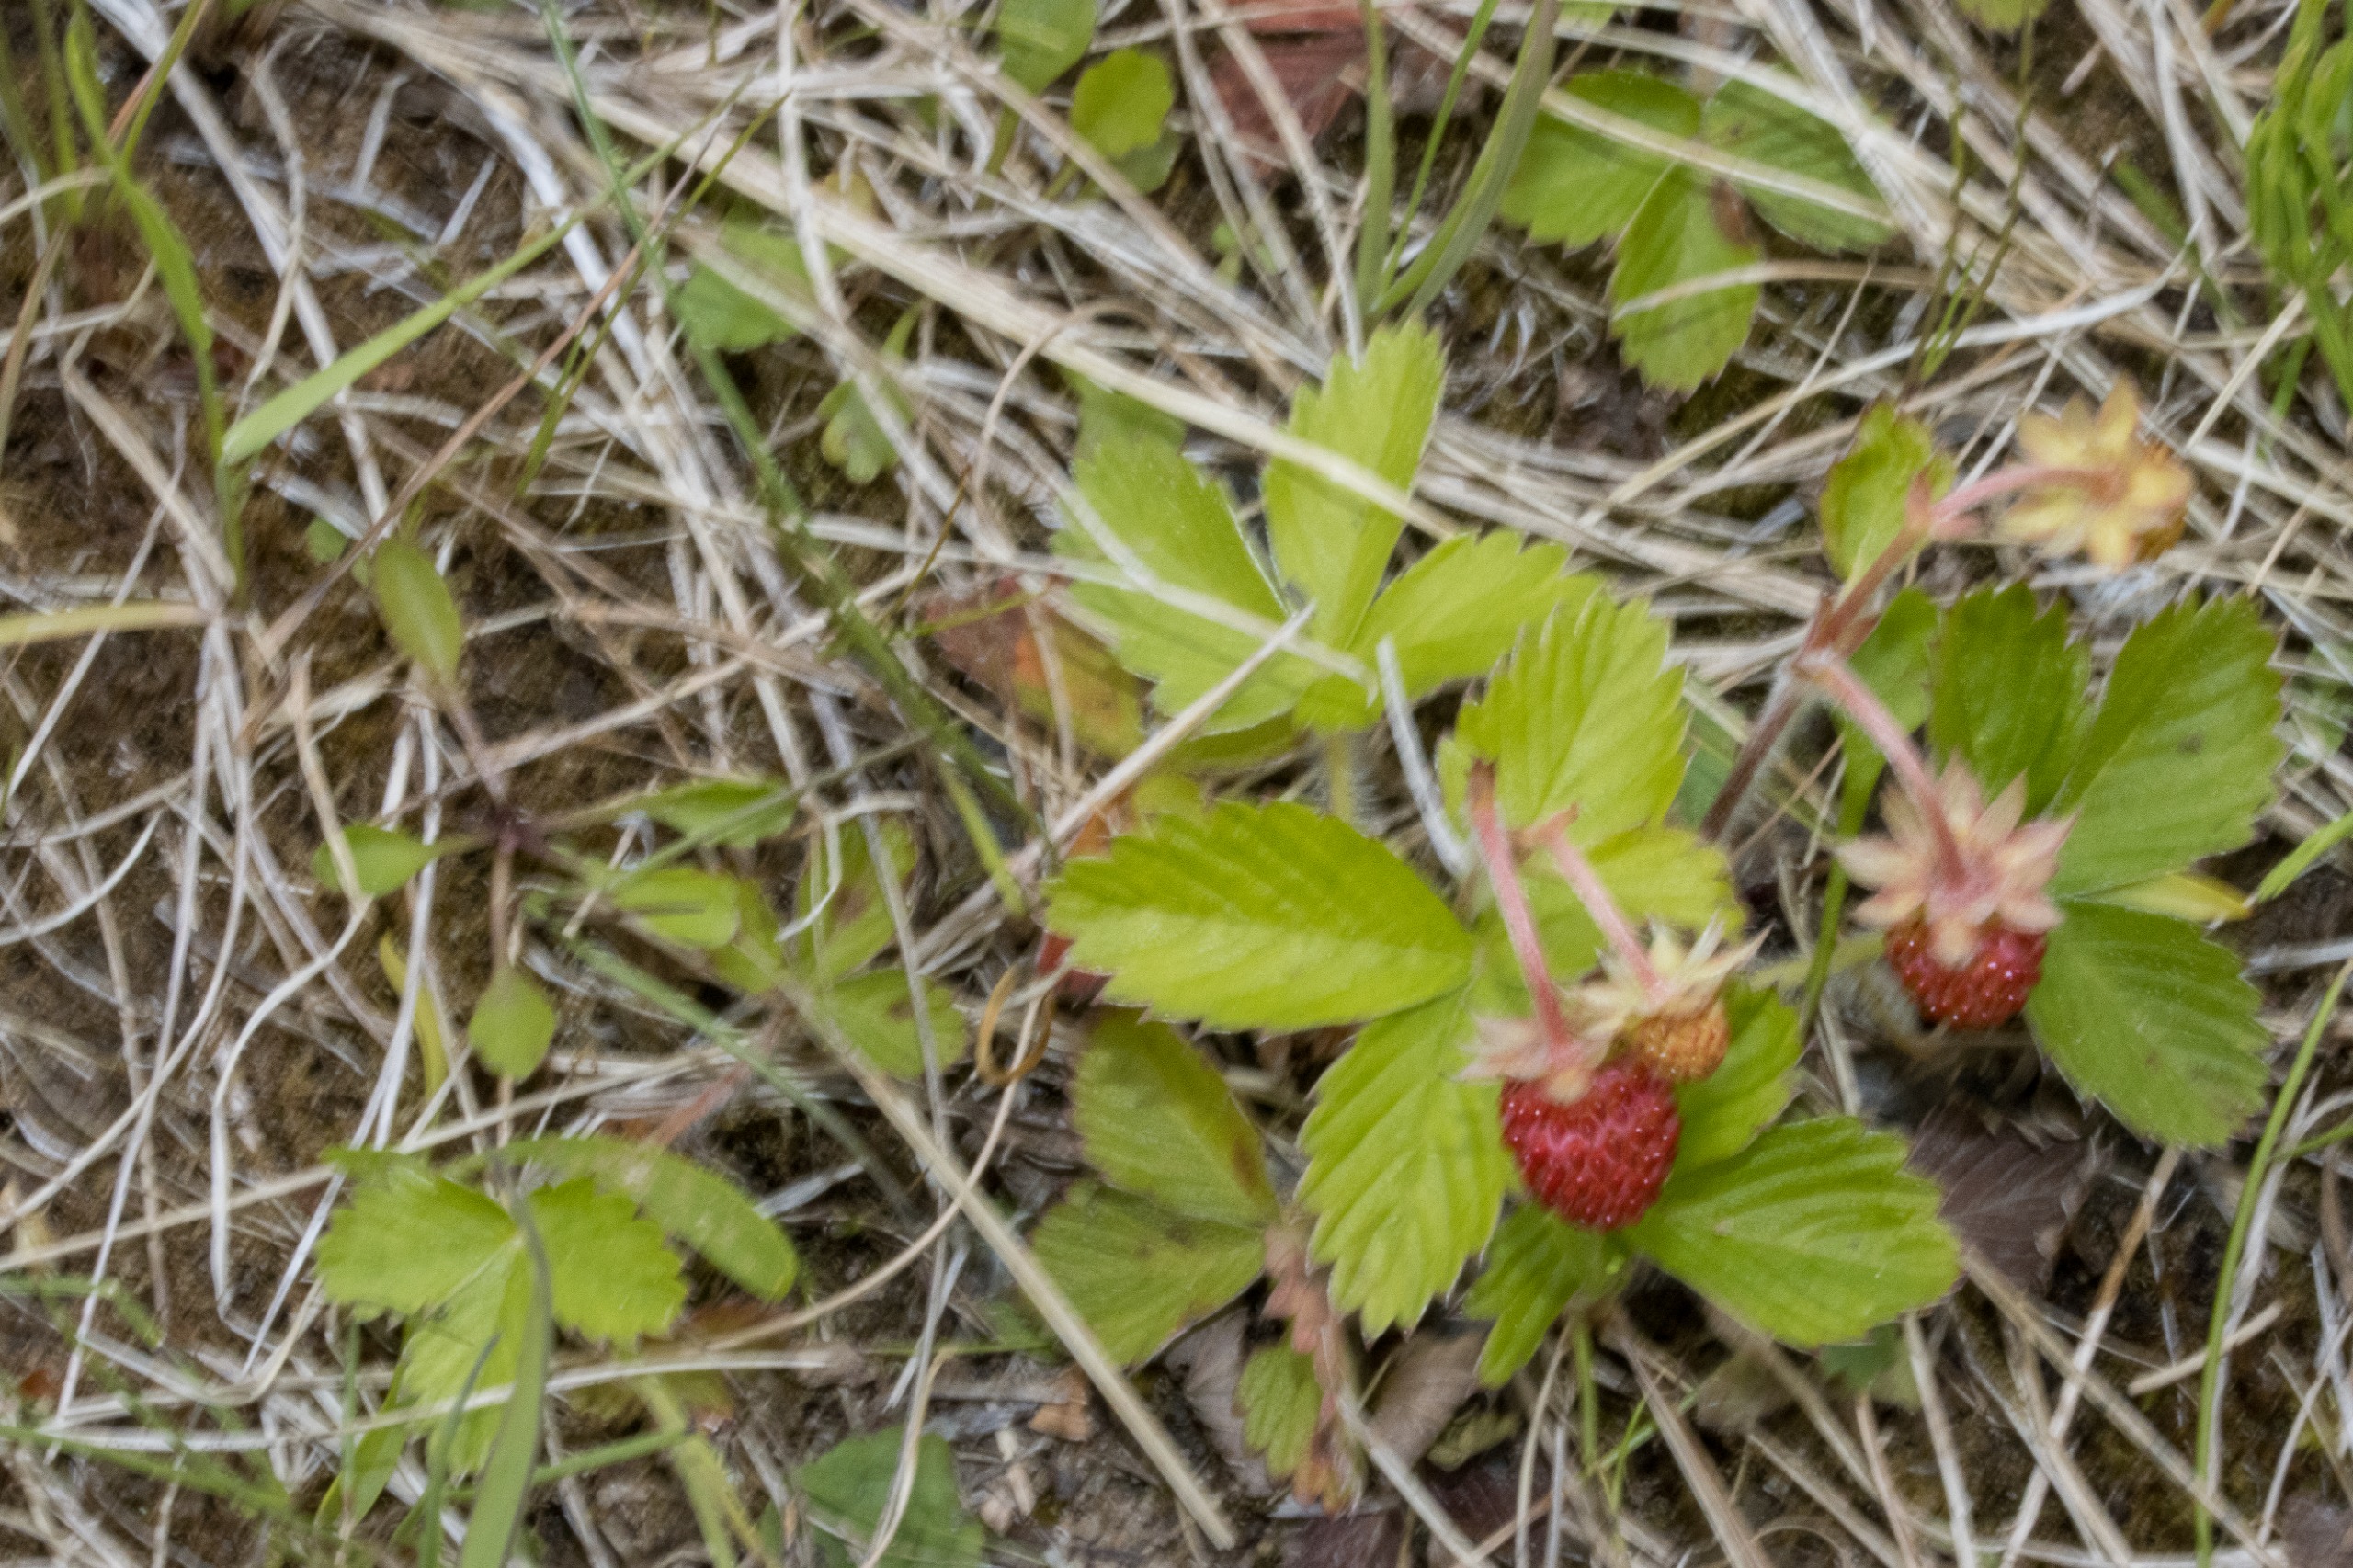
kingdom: Plantae
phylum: Tracheophyta
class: Magnoliopsida
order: Rosales
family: Rosaceae
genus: Fragaria
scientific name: Fragaria vesca
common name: Skov-jordbær
